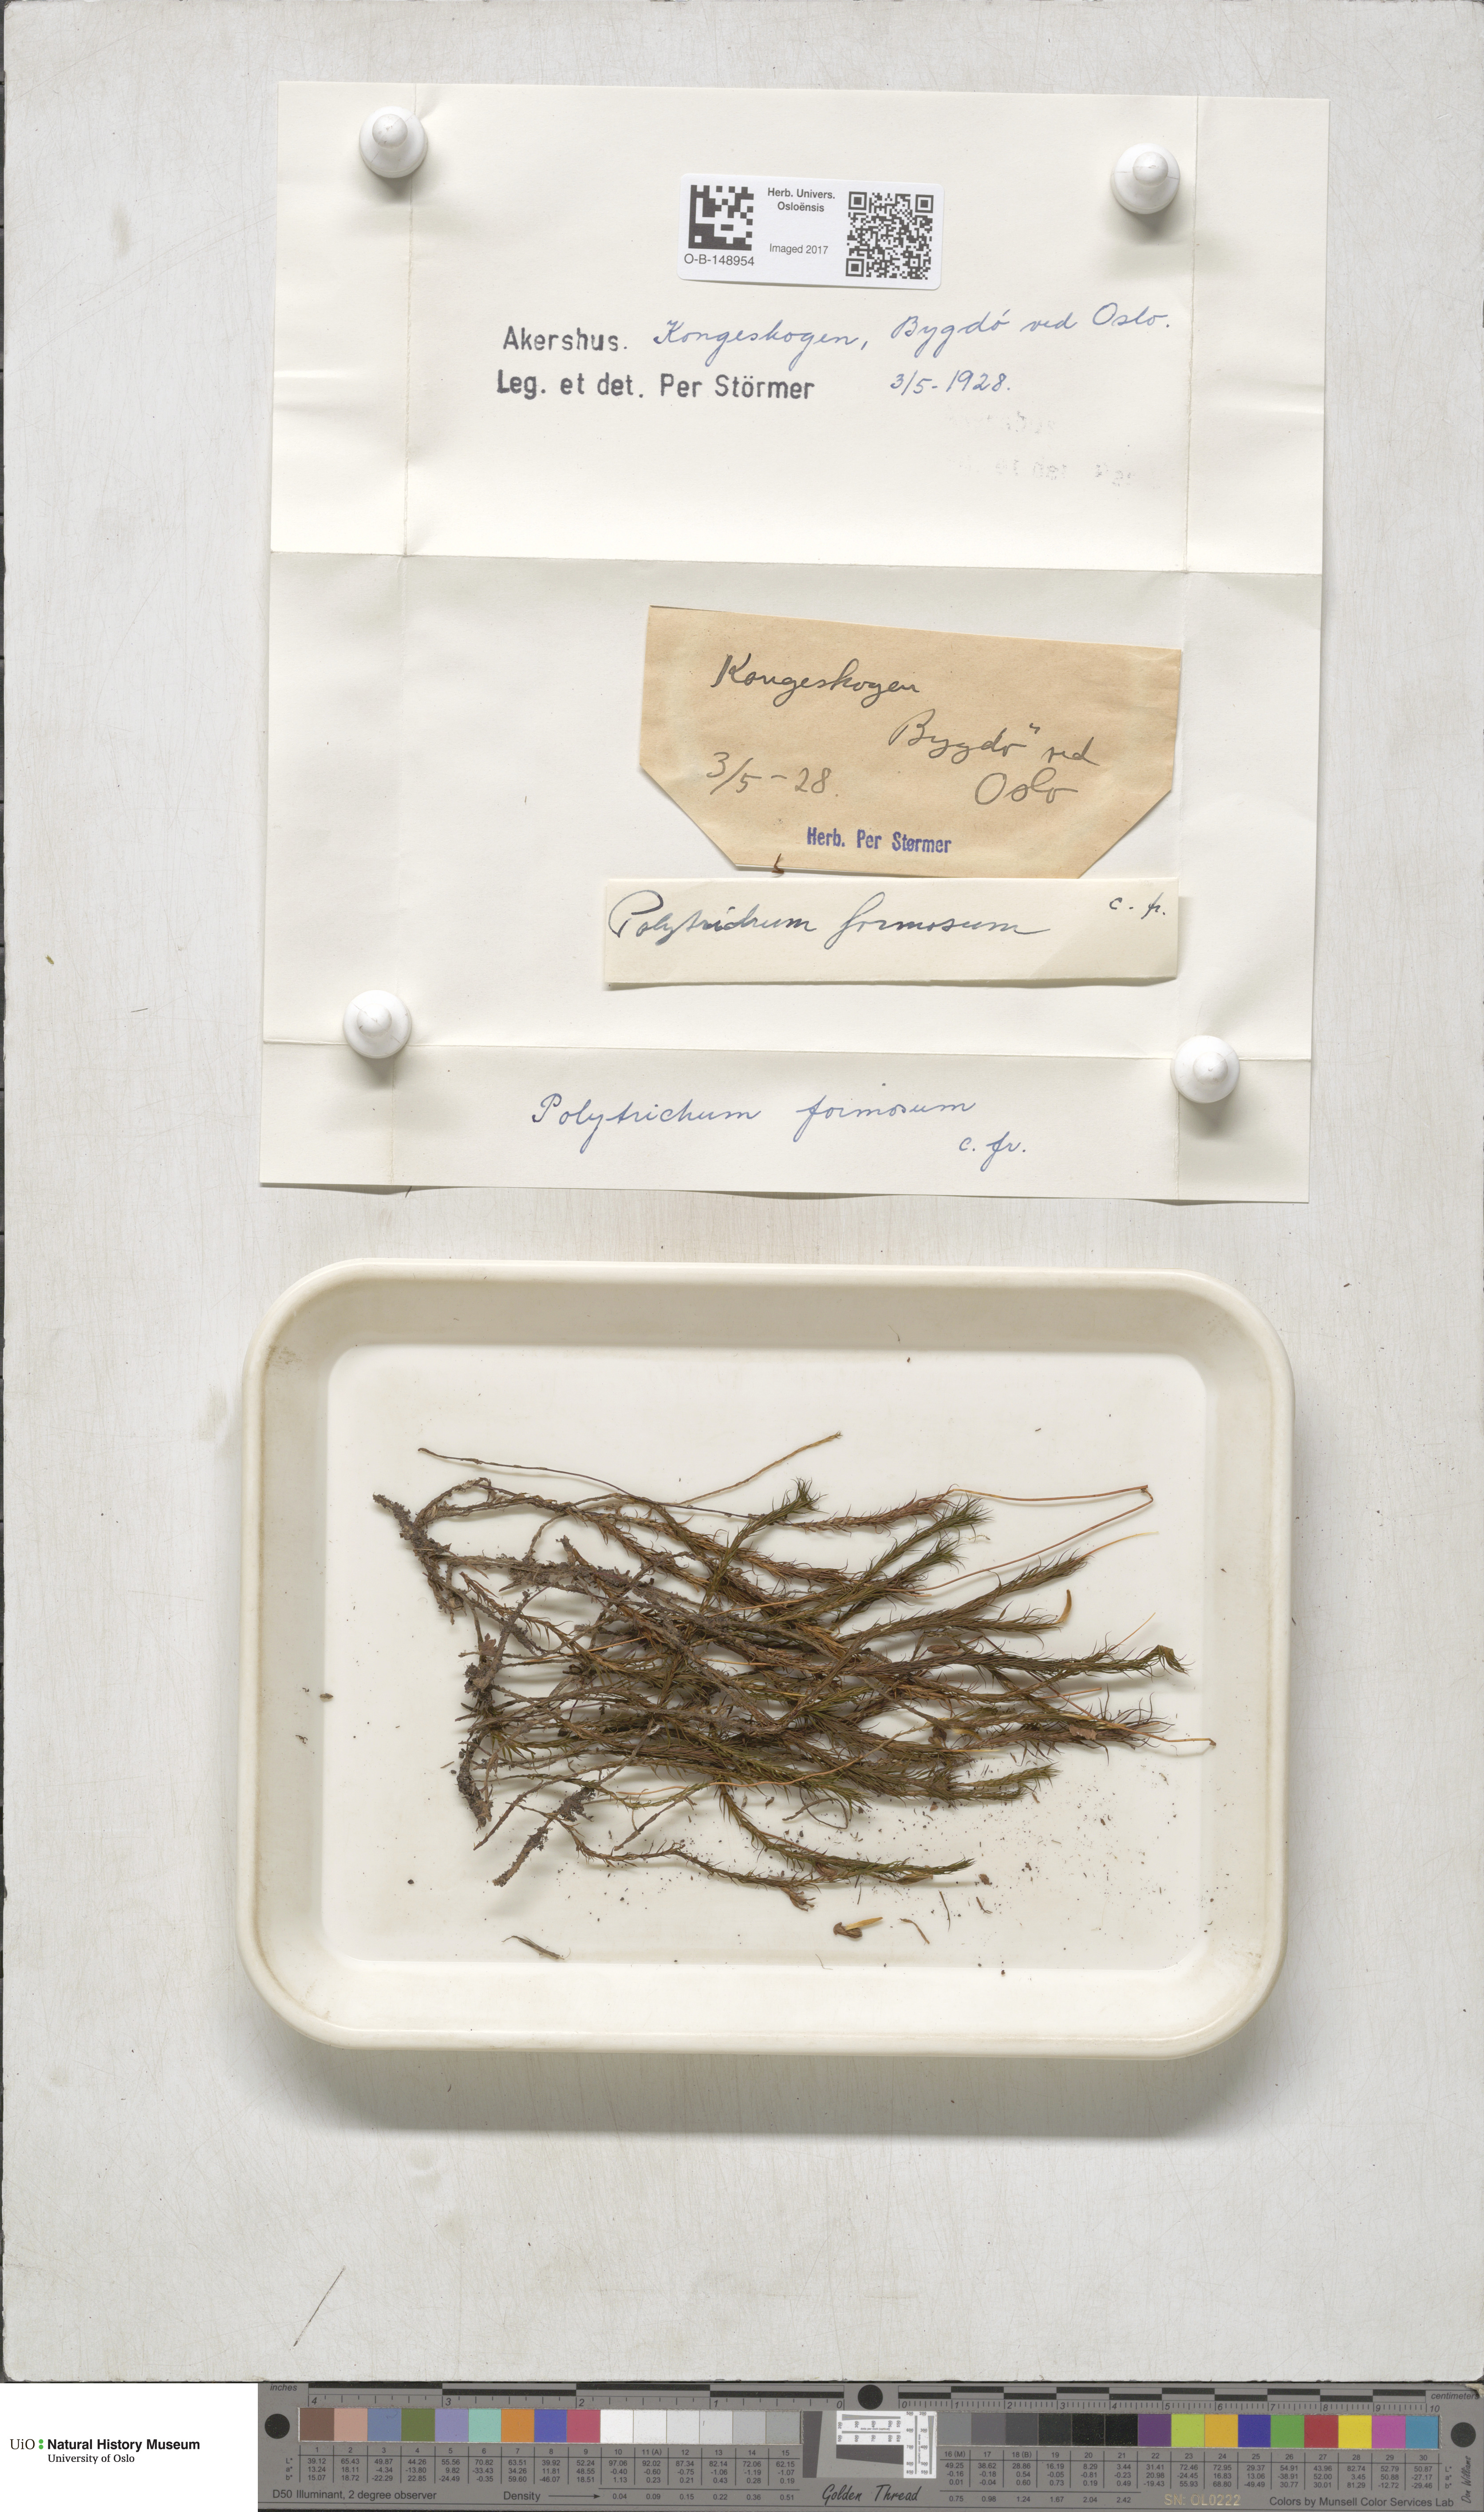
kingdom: Plantae
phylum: Bryophyta
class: Polytrichopsida
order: Polytrichales
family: Polytrichaceae
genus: Polytrichum
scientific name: Polytrichum formosum
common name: Bank haircap moss
